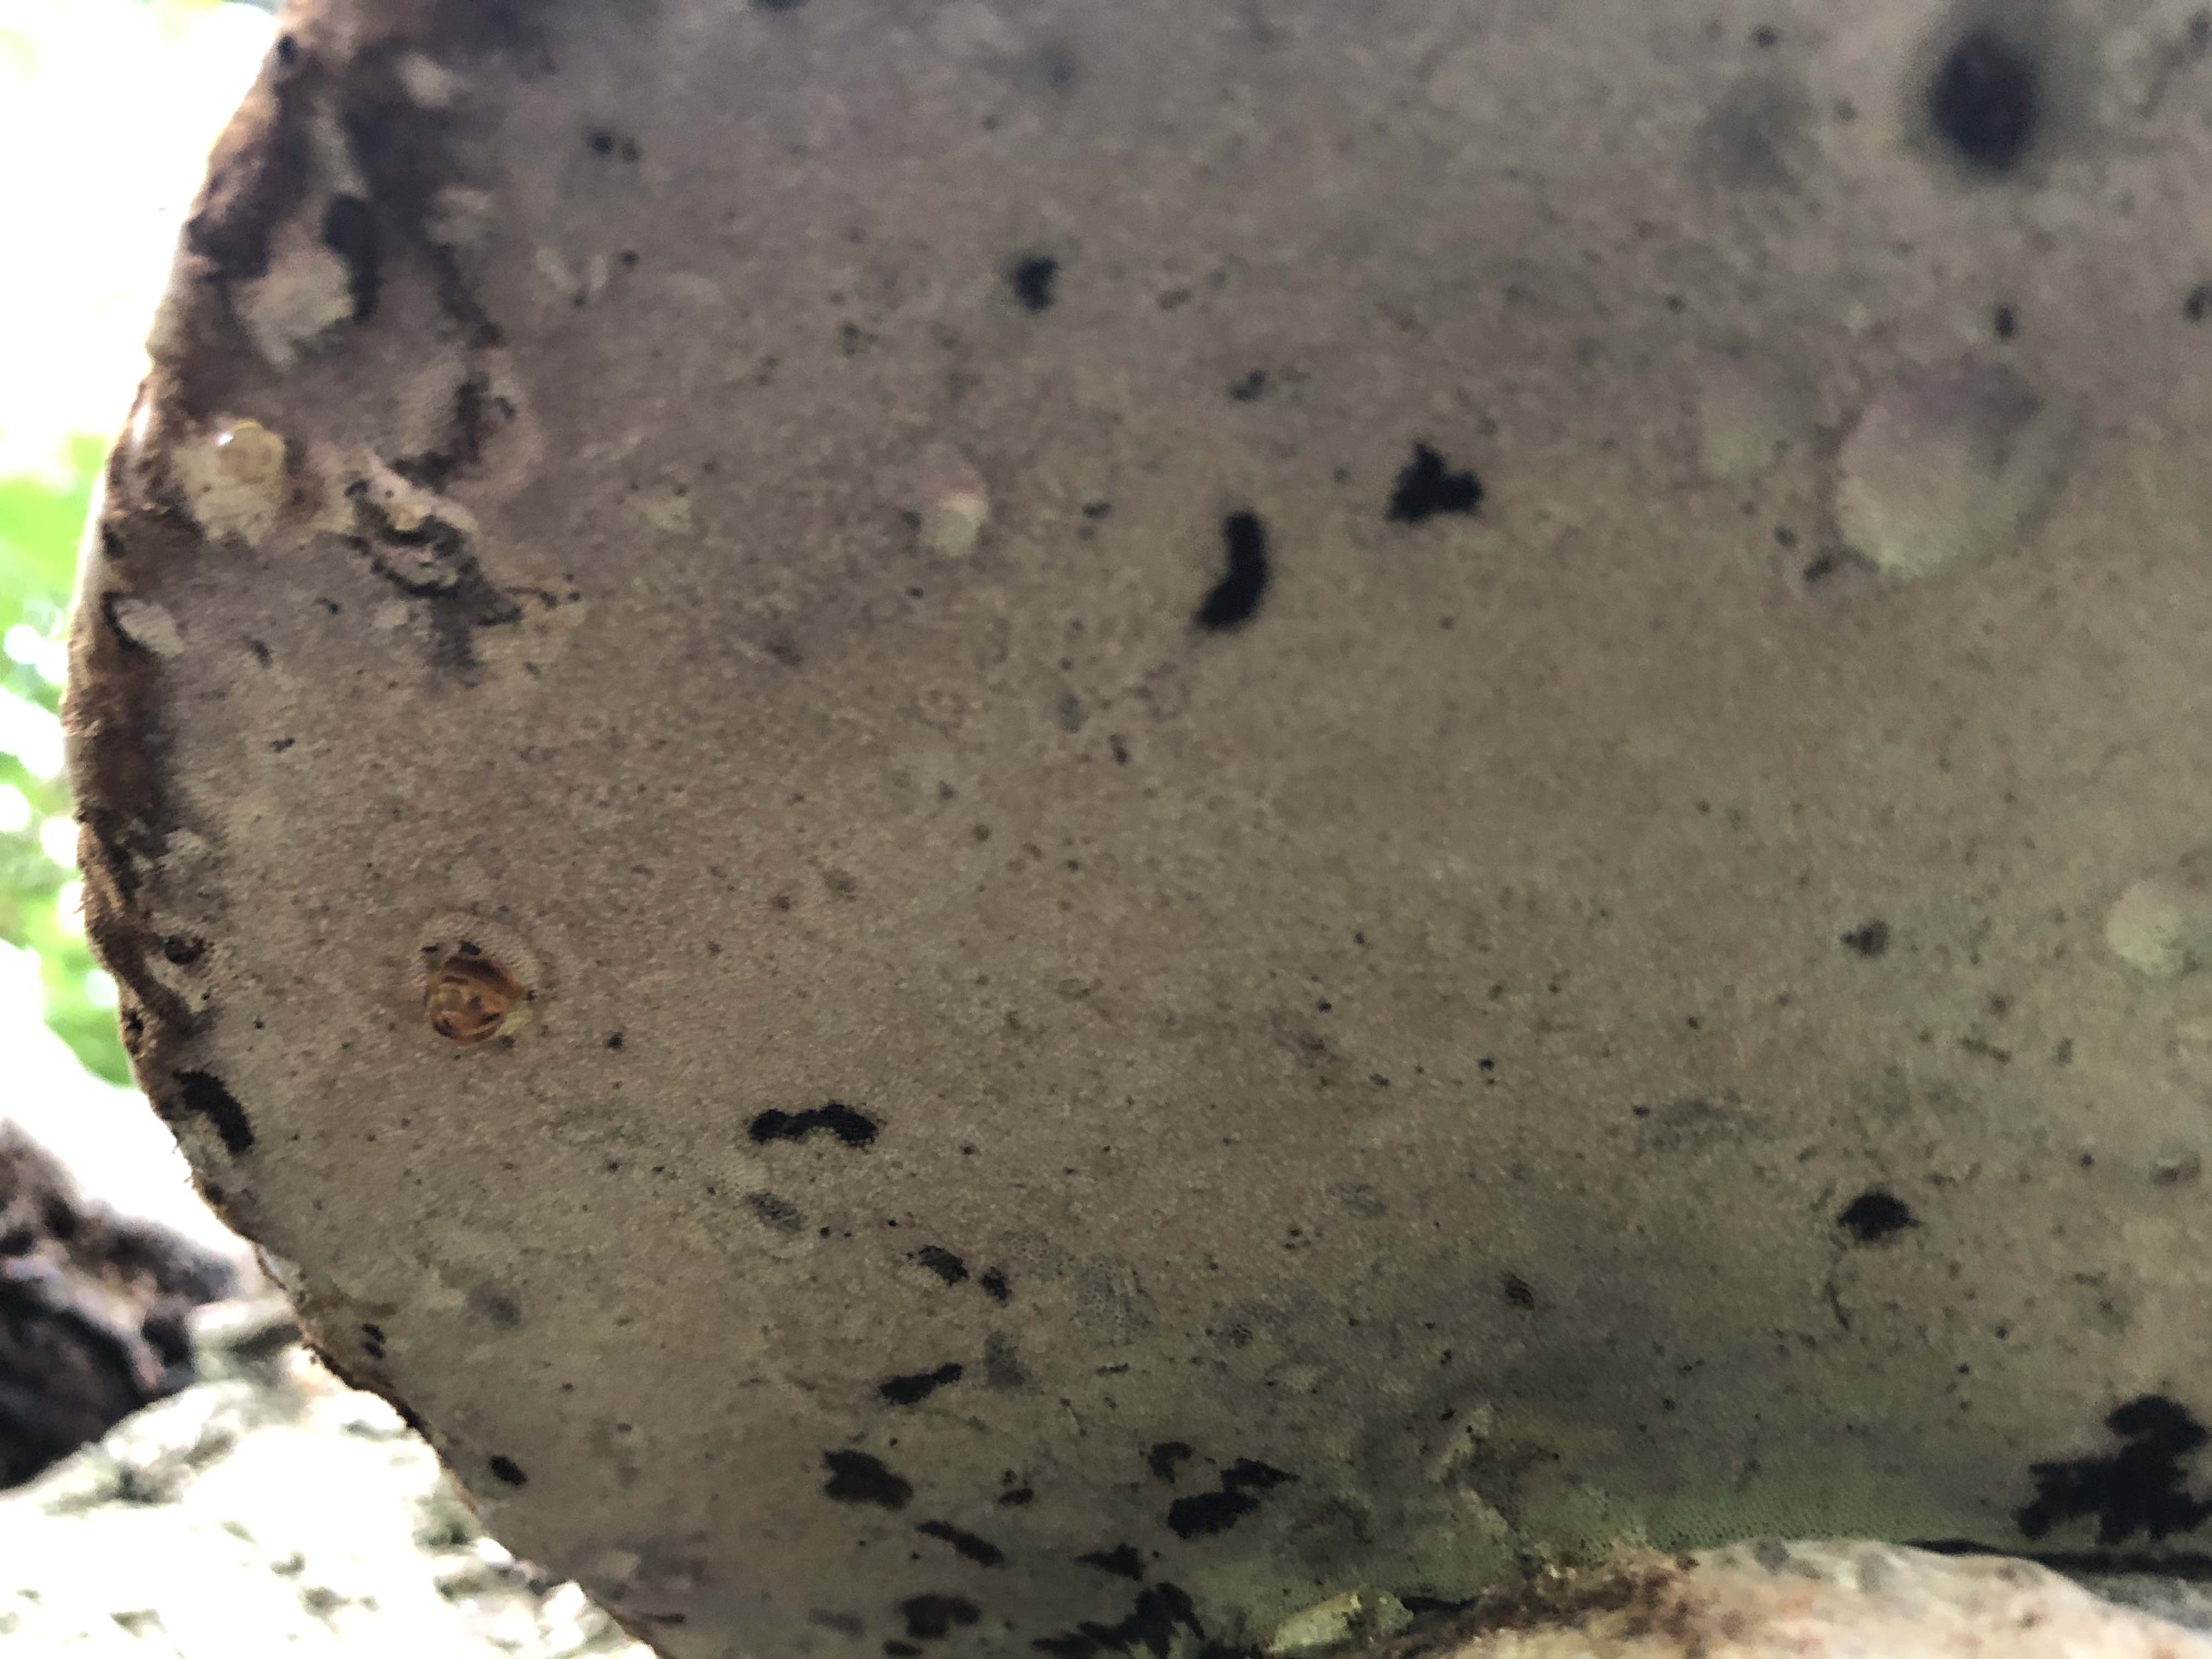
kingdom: Fungi
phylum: Basidiomycota
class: Agaricomycetes
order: Polyporales
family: Polyporaceae
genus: Fomes
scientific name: Fomes fomentarius
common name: tøndersvamp
